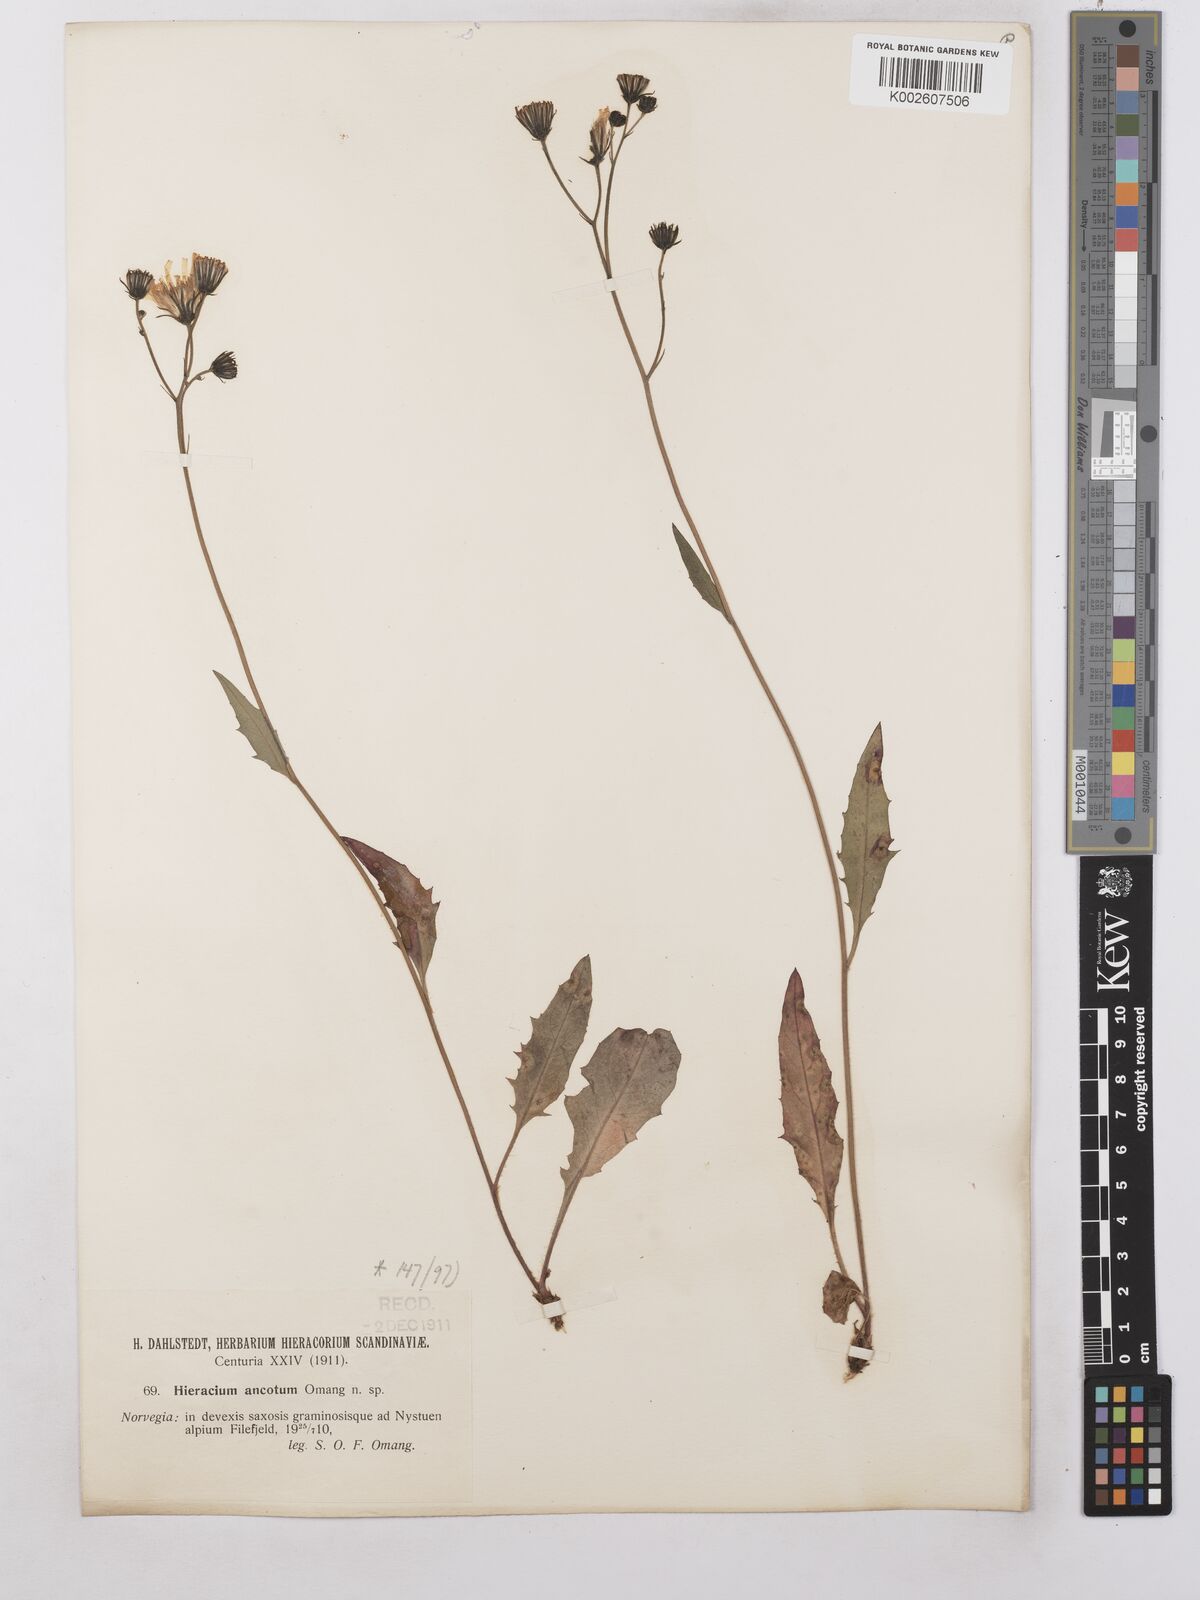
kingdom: Plantae
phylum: Tracheophyta
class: Magnoliopsida
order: Asterales
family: Asteraceae
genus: Hieracium
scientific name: Hieracium caesium
